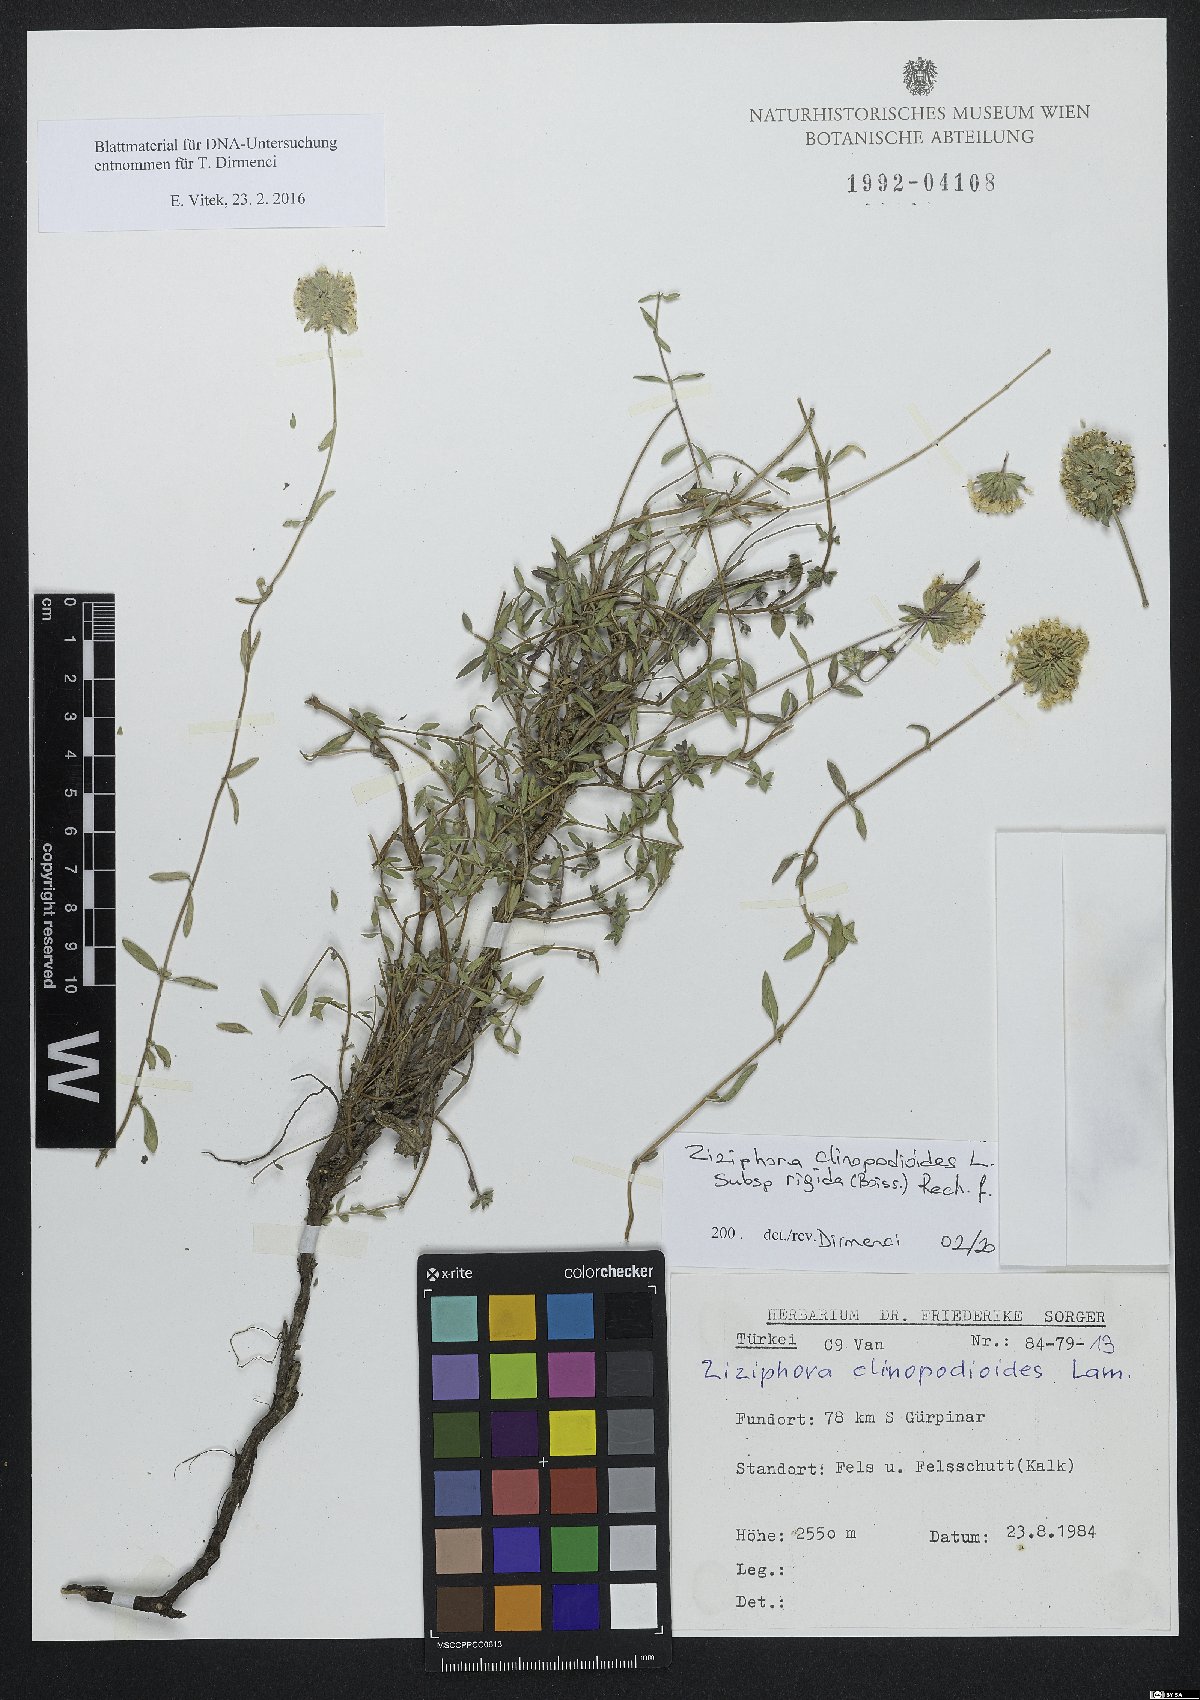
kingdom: Plantae
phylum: Tracheophyta
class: Magnoliopsida
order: Lamiales
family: Lamiaceae
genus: Ziziphora
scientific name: Ziziphora clinopodioides
